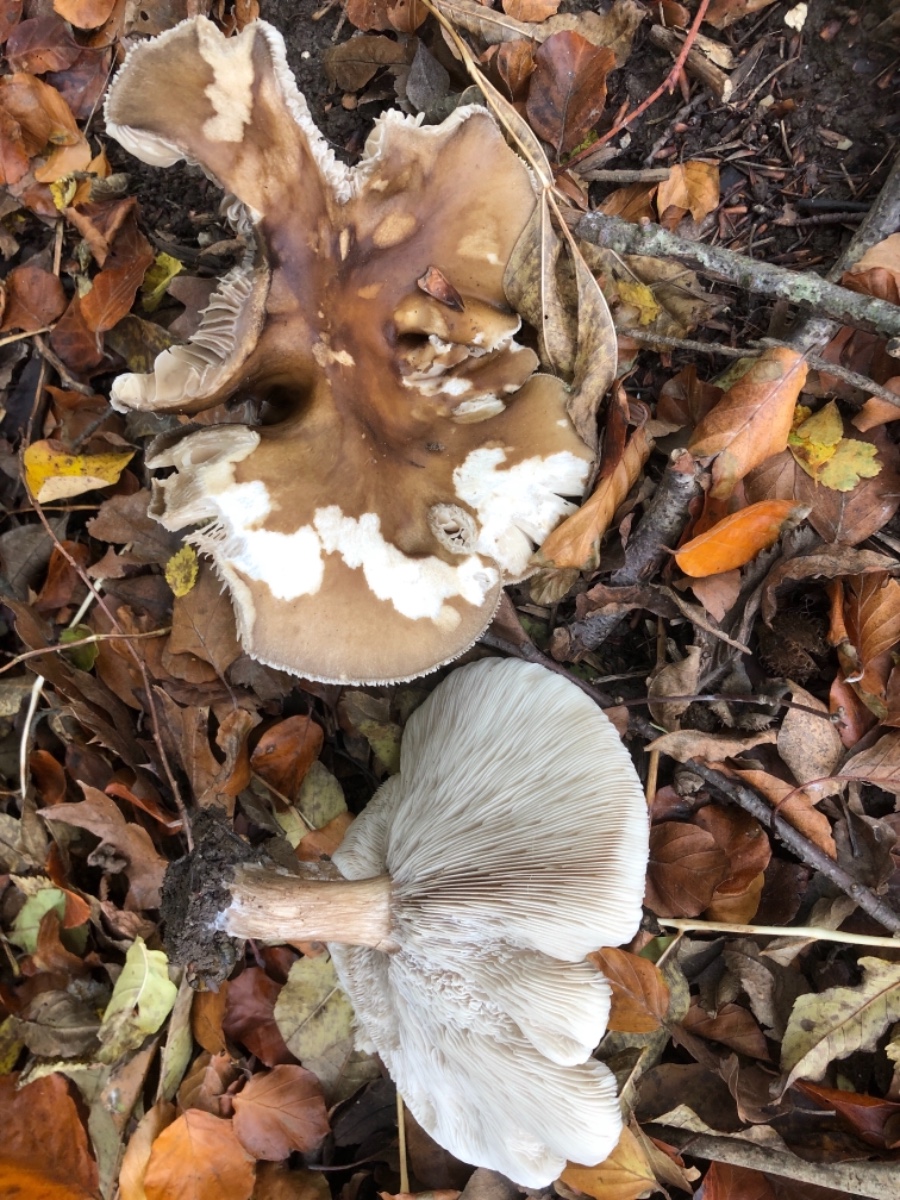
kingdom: Fungi
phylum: Basidiomycota
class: Agaricomycetes
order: Agaricales
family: Tricholomataceae
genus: Melanoleuca
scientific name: Melanoleuca grammopodia
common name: stribestokket munkehat
